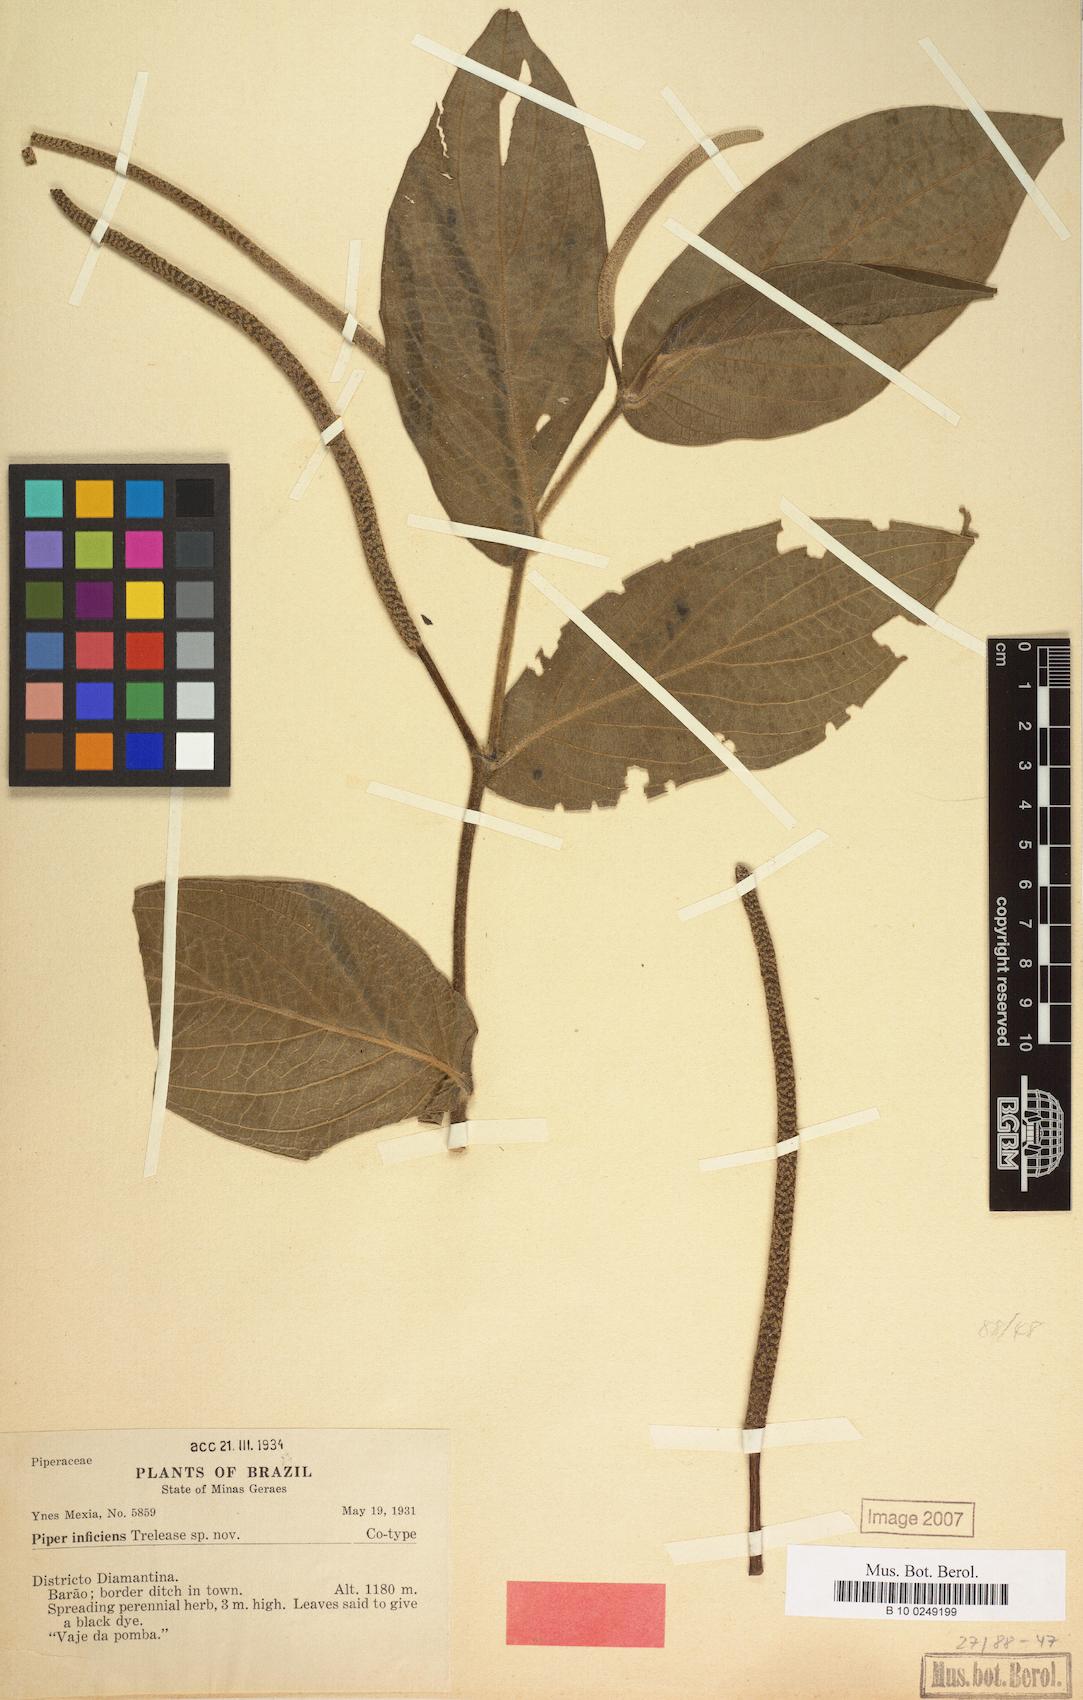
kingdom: Plantae
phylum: Tracheophyta
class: Magnoliopsida
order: Piperales
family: Piperaceae
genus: Piper
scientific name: Piper divaricatum
